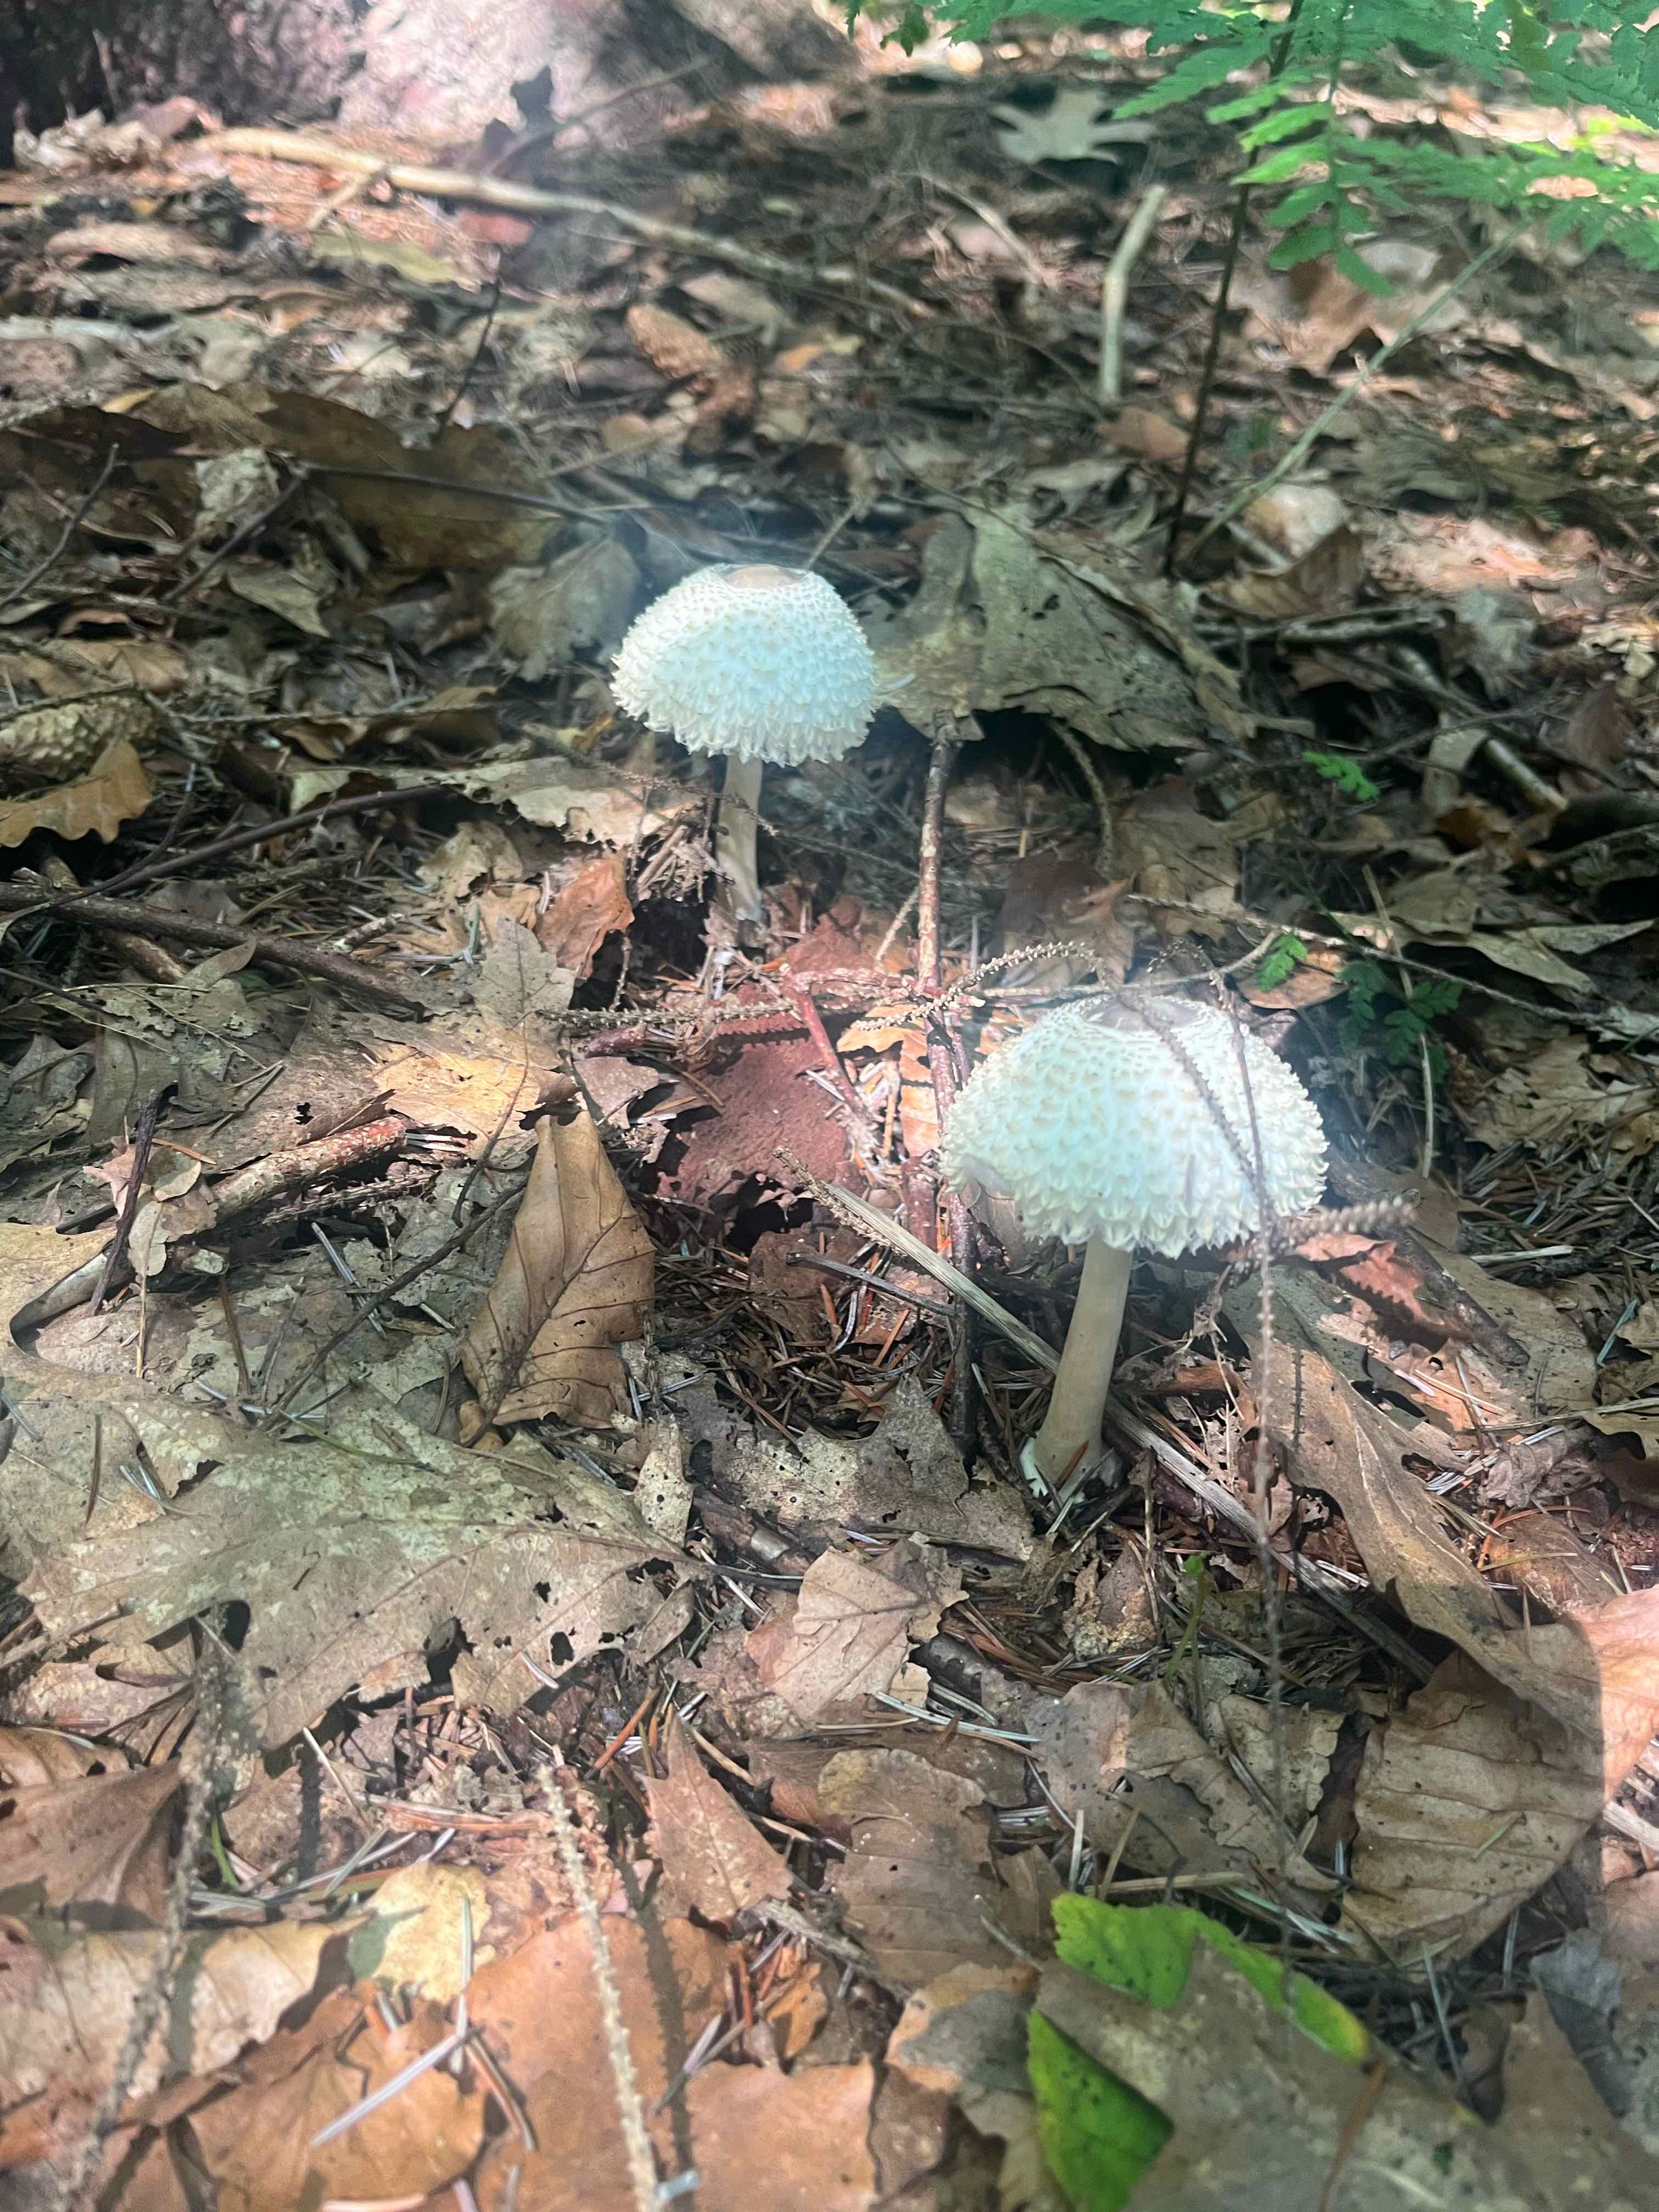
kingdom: Fungi
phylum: Basidiomycota
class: Agaricomycetes
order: Agaricales
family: Agaricaceae
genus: Leucoagaricus
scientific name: Leucoagaricus nympharum
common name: gran-silkehat
